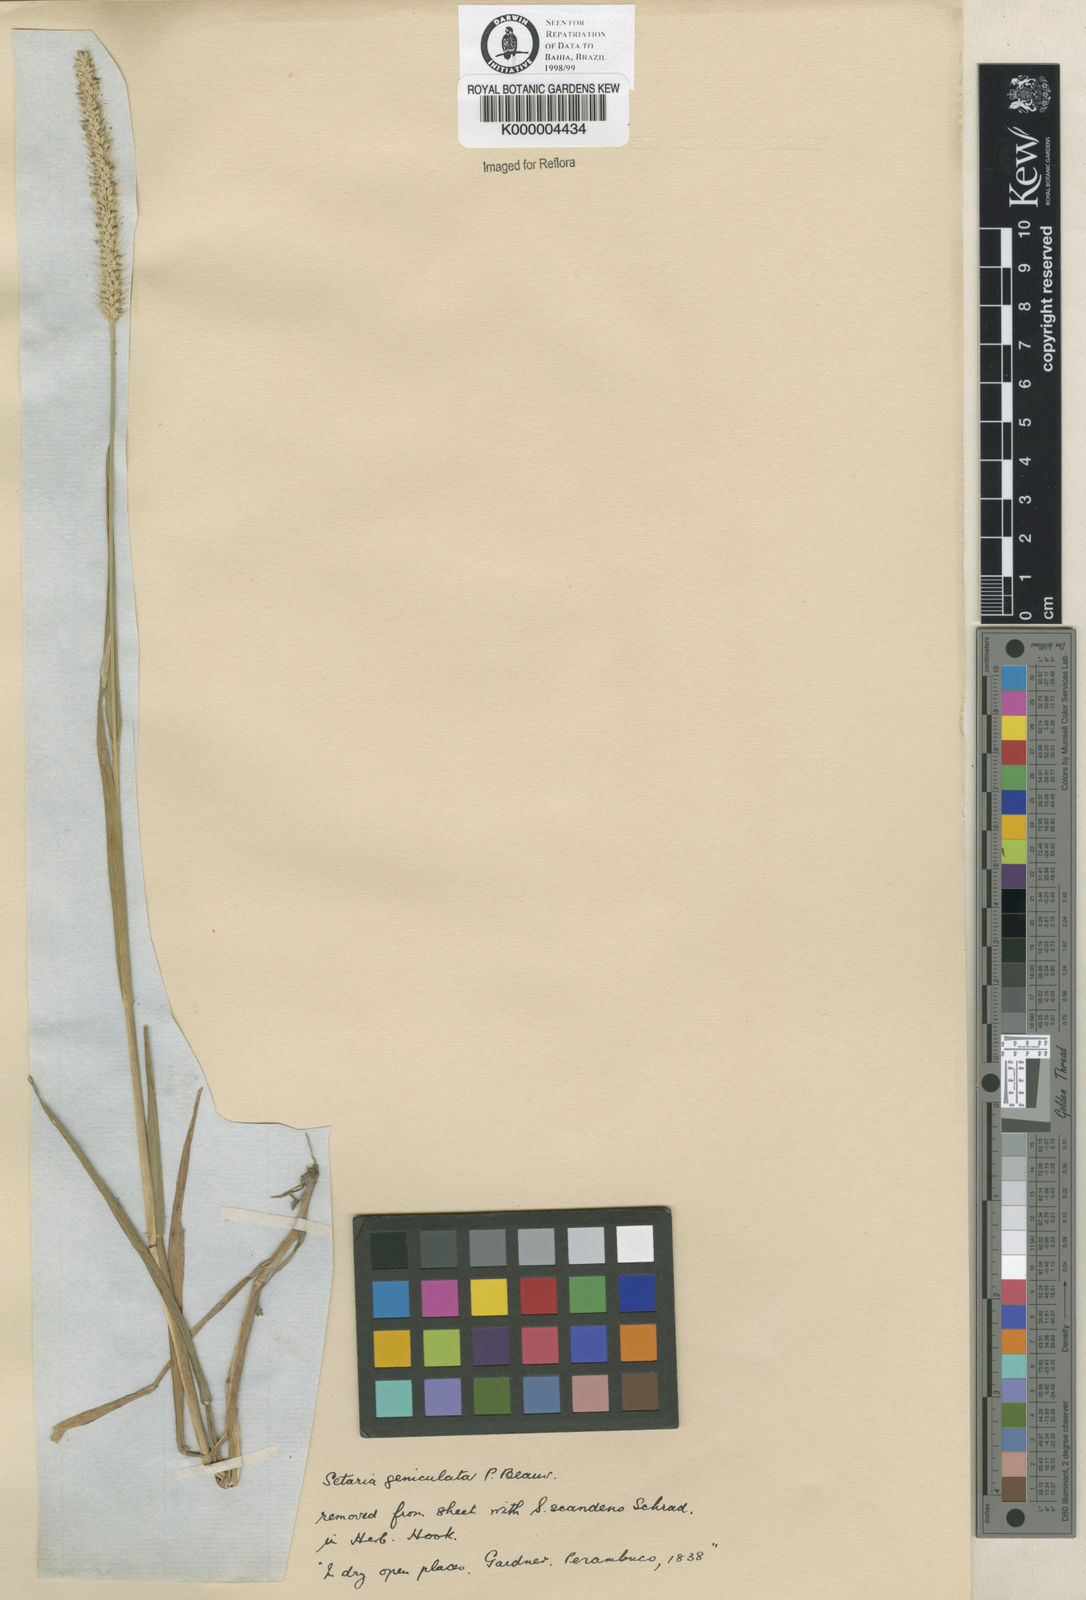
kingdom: Plantae
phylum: Tracheophyta
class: Liliopsida
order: Poales
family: Poaceae
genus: Setaria
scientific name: Setaria parviflora
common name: Knotroot bristle-grass
